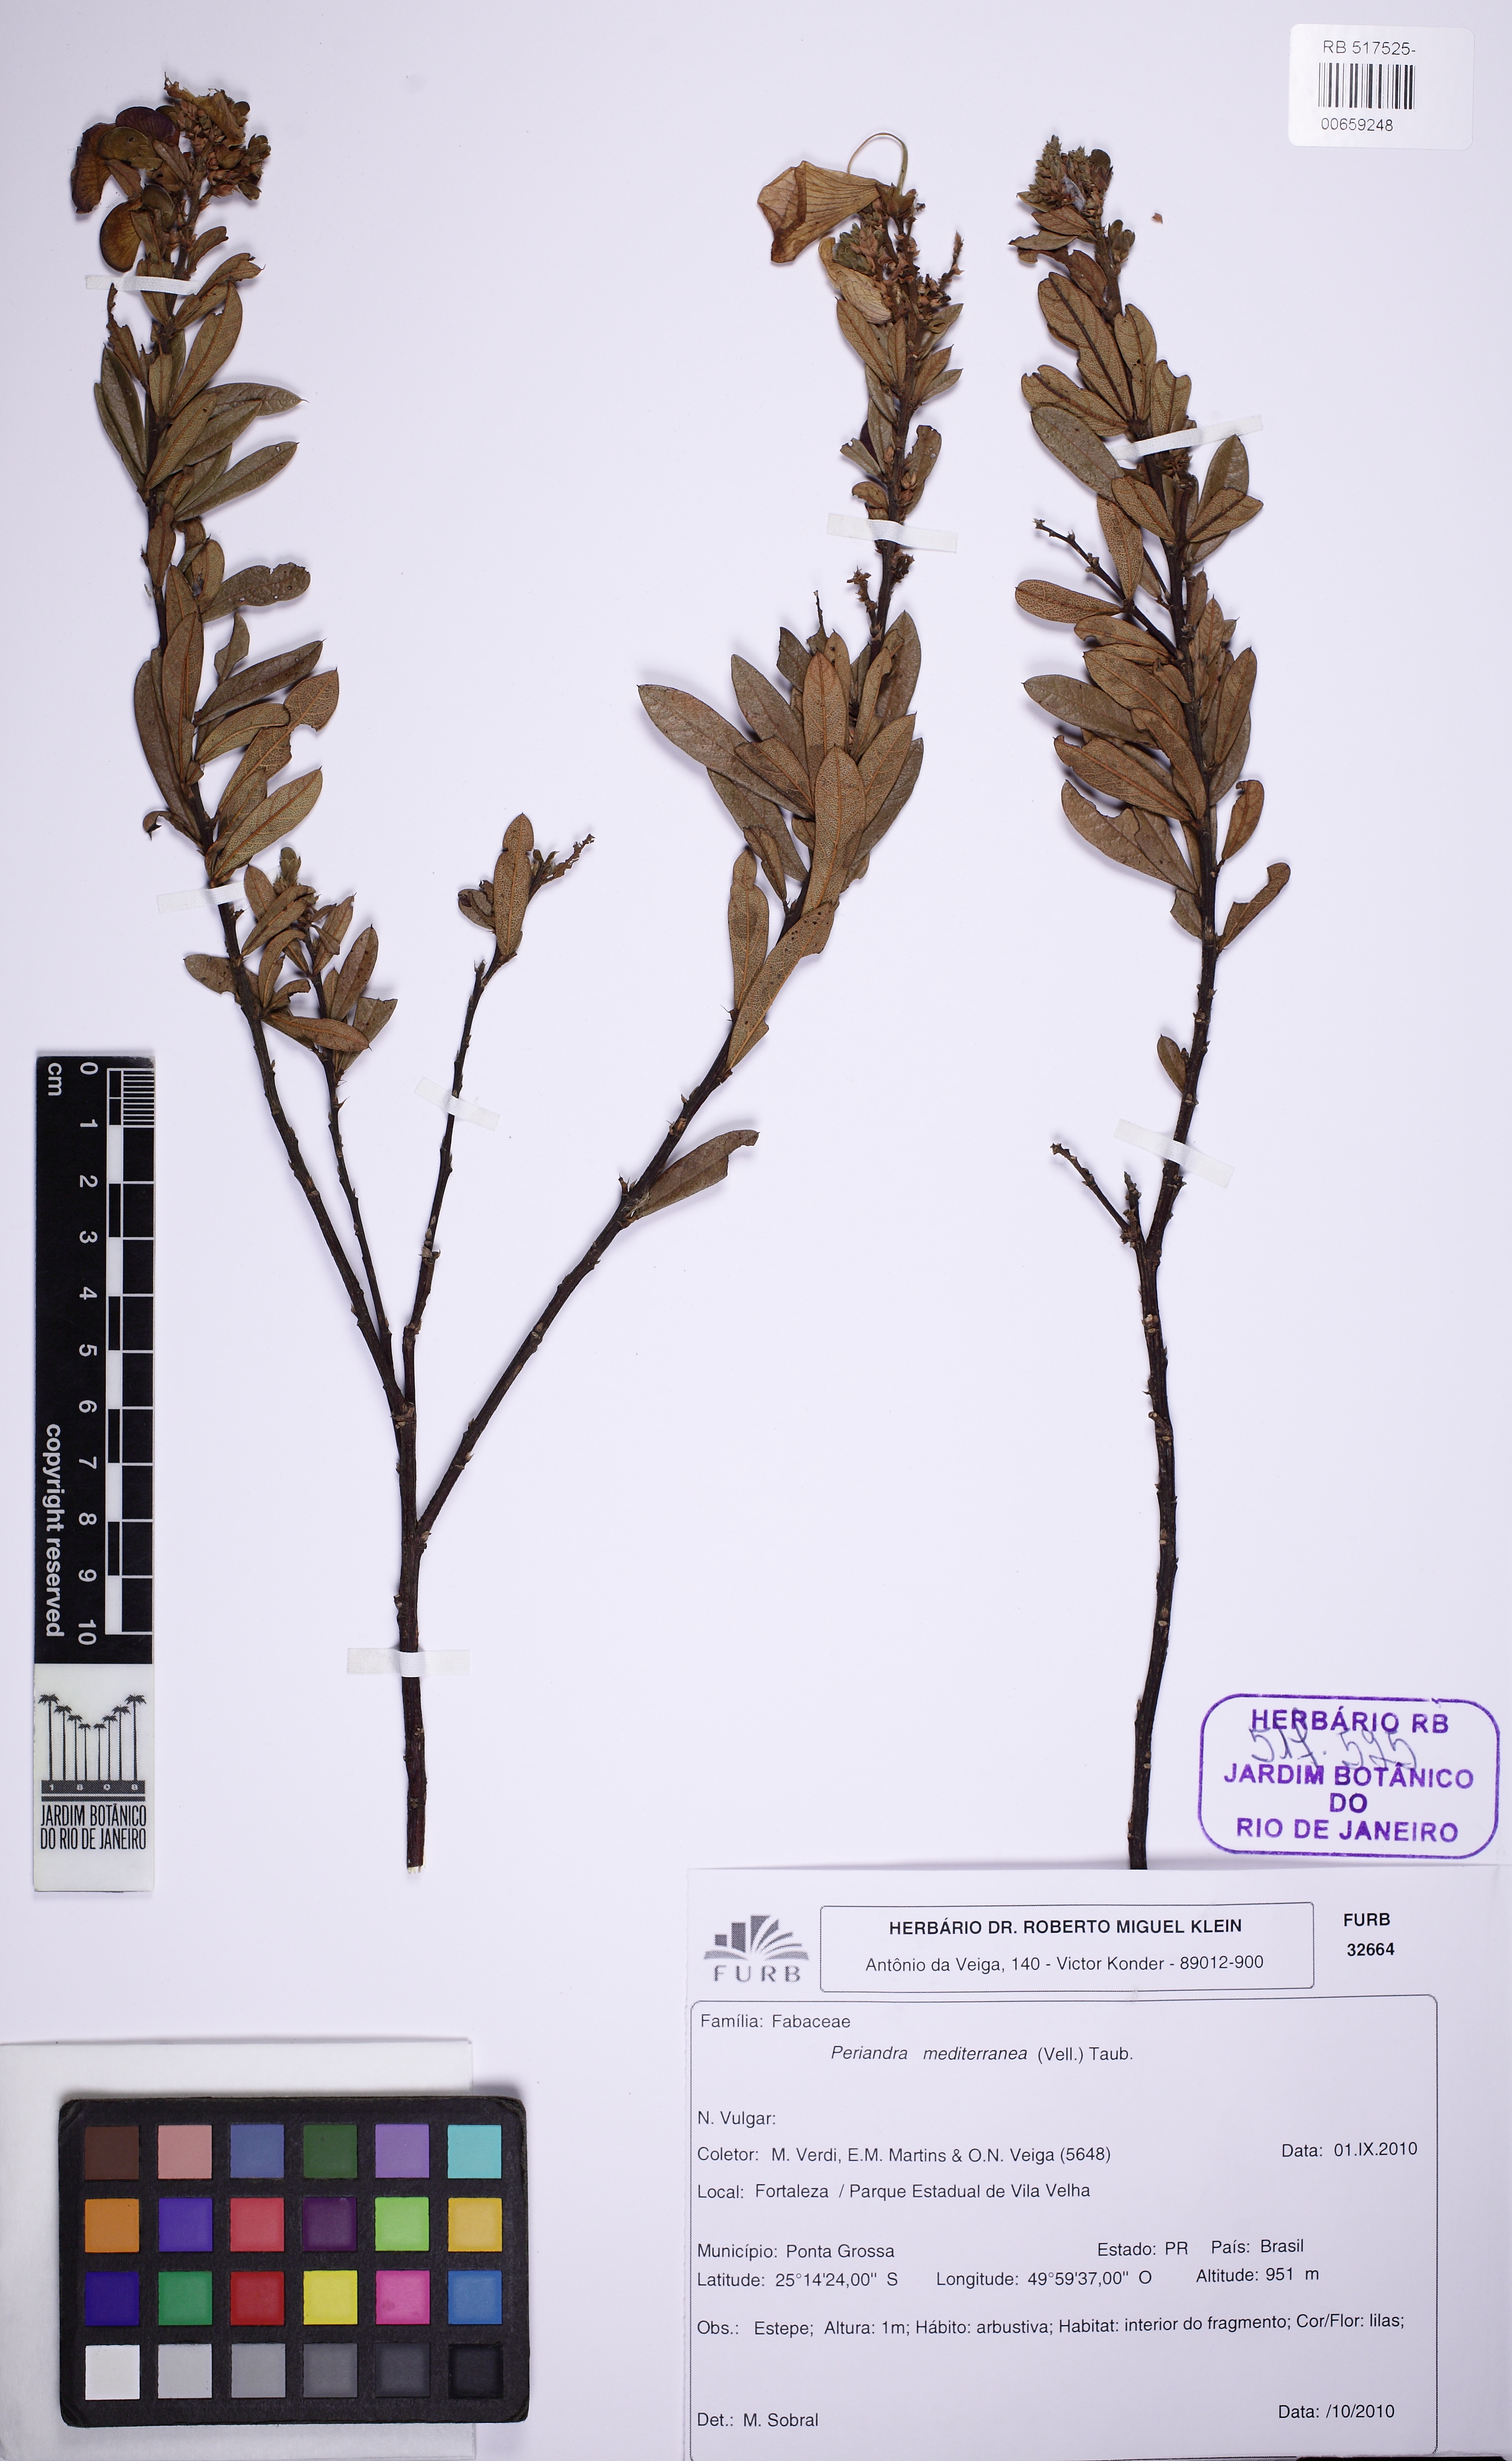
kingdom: Plantae
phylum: Tracheophyta
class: Magnoliopsida
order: Fabales
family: Fabaceae
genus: Periandra
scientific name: Periandra mediterranea
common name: Brazilian licorice
